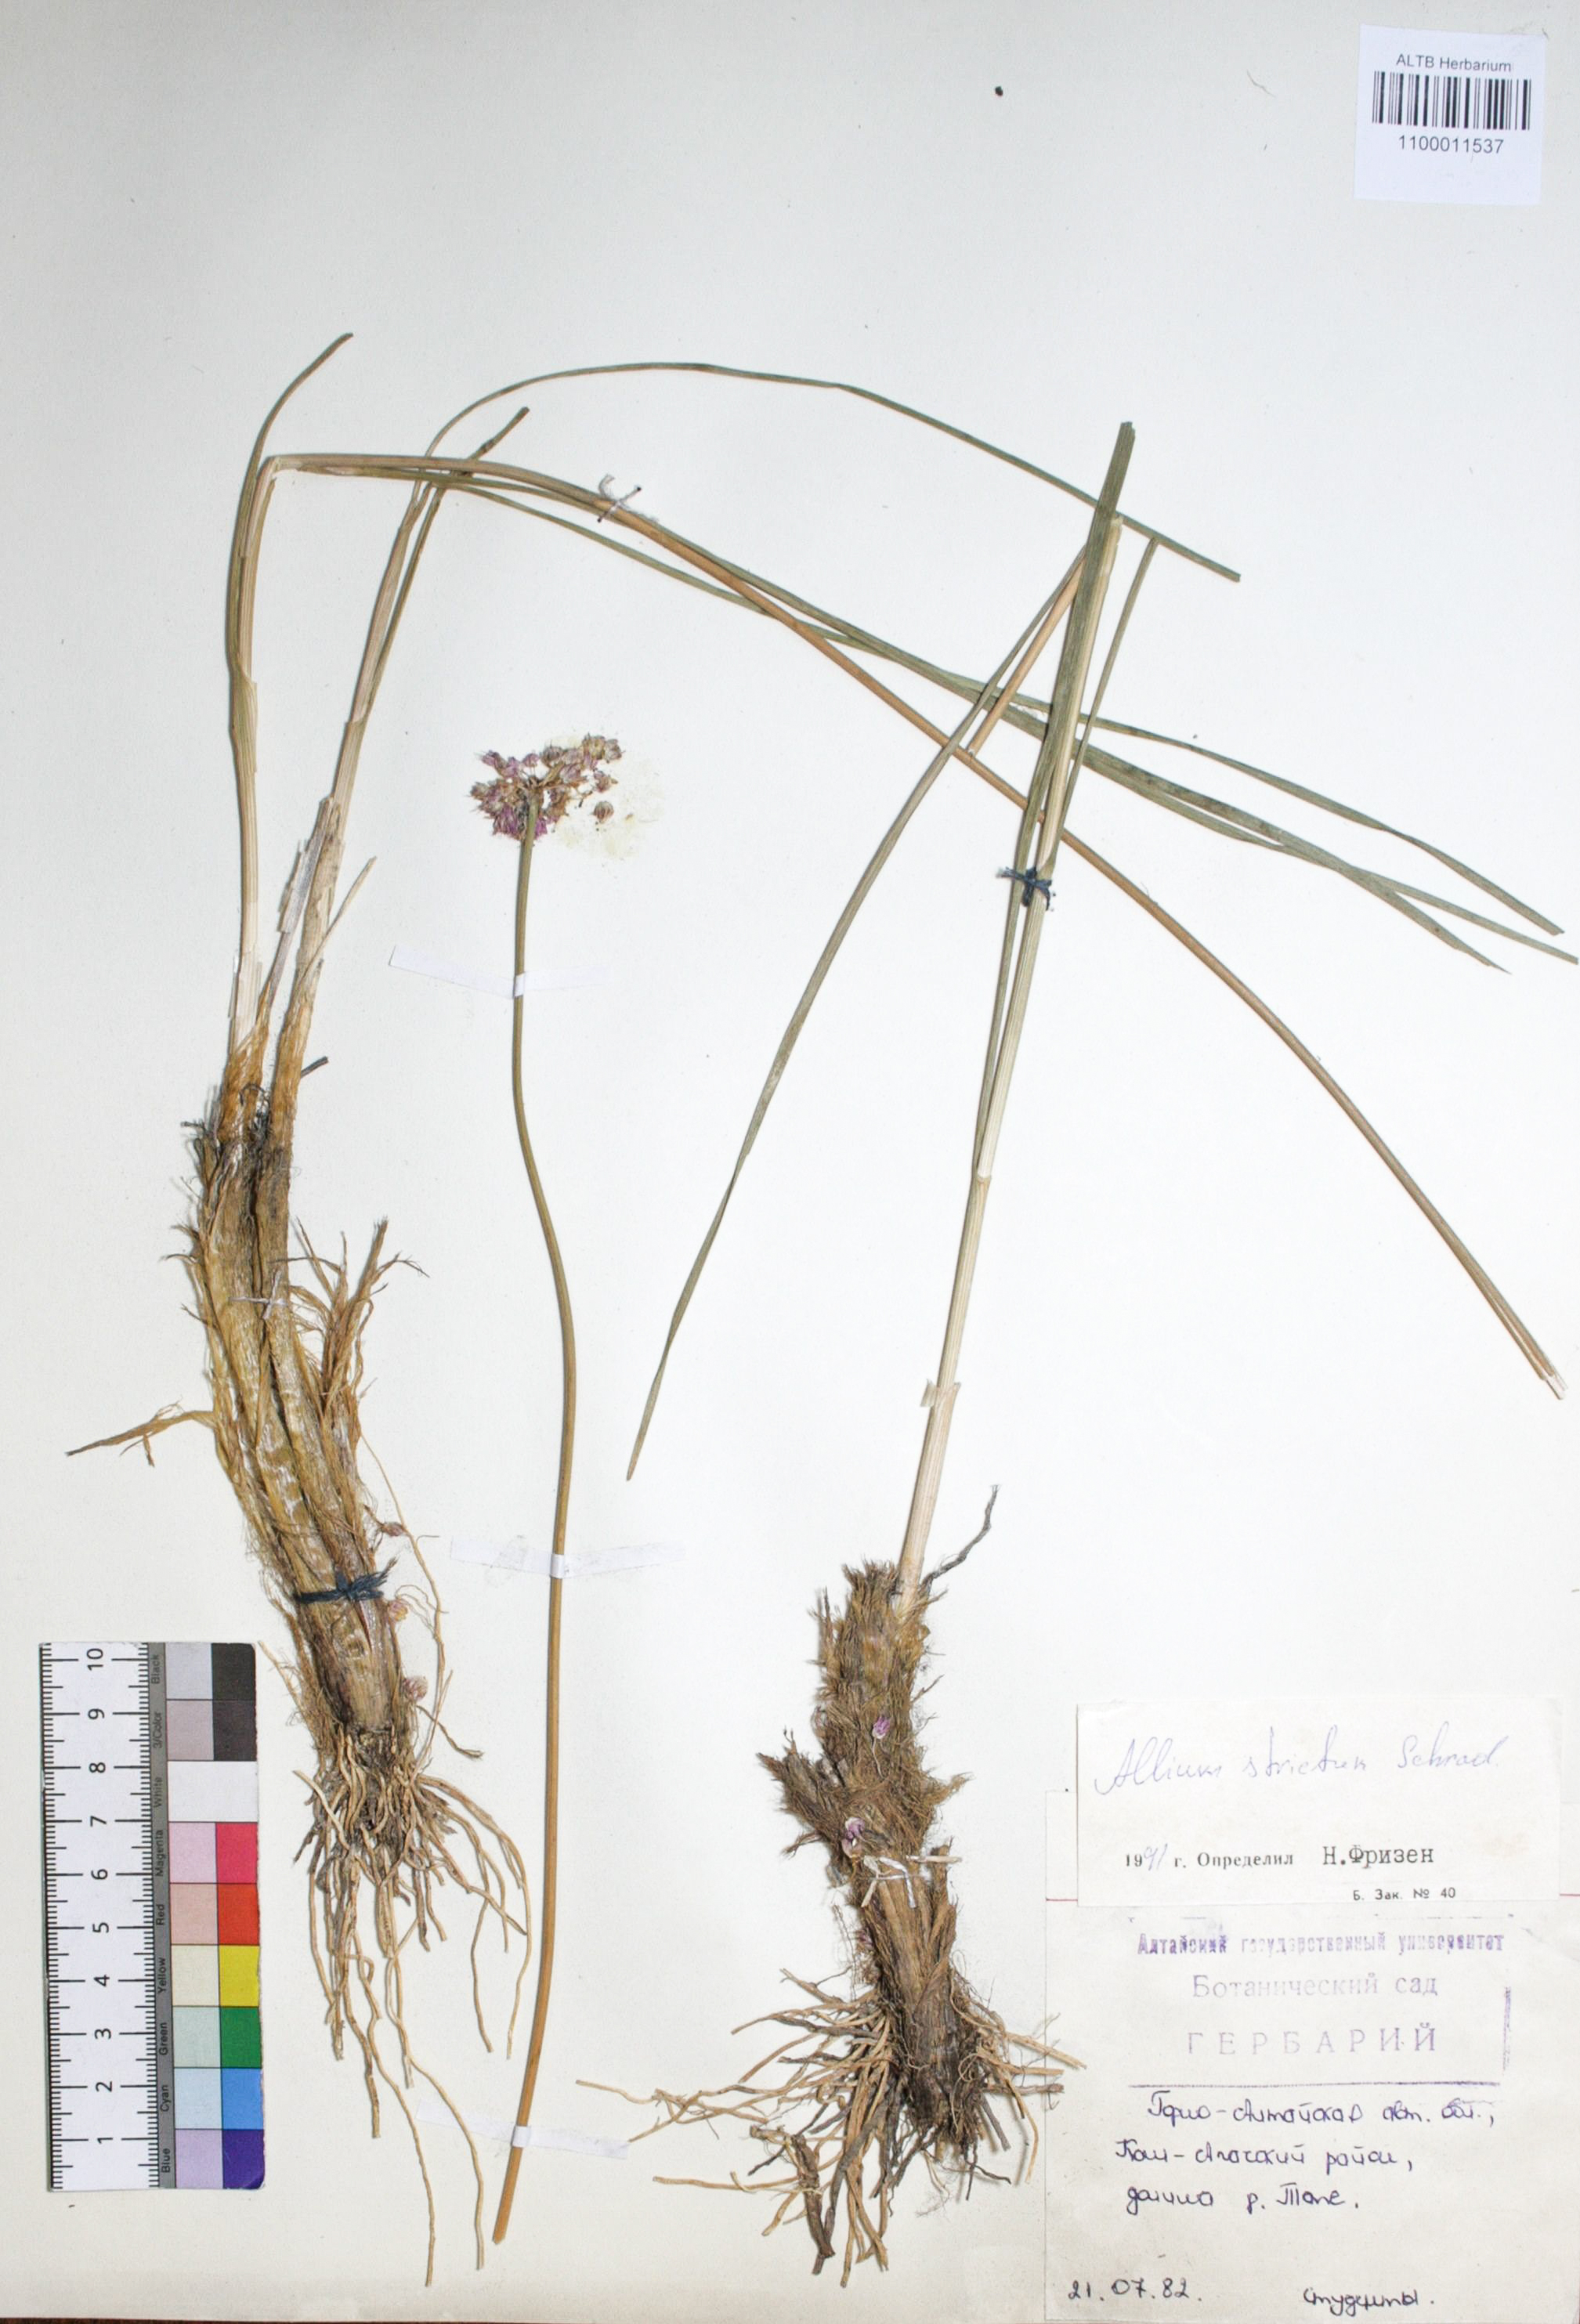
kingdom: Plantae
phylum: Tracheophyta
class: Liliopsida
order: Asparagales
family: Amaryllidaceae
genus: Allium
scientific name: Allium strictum
